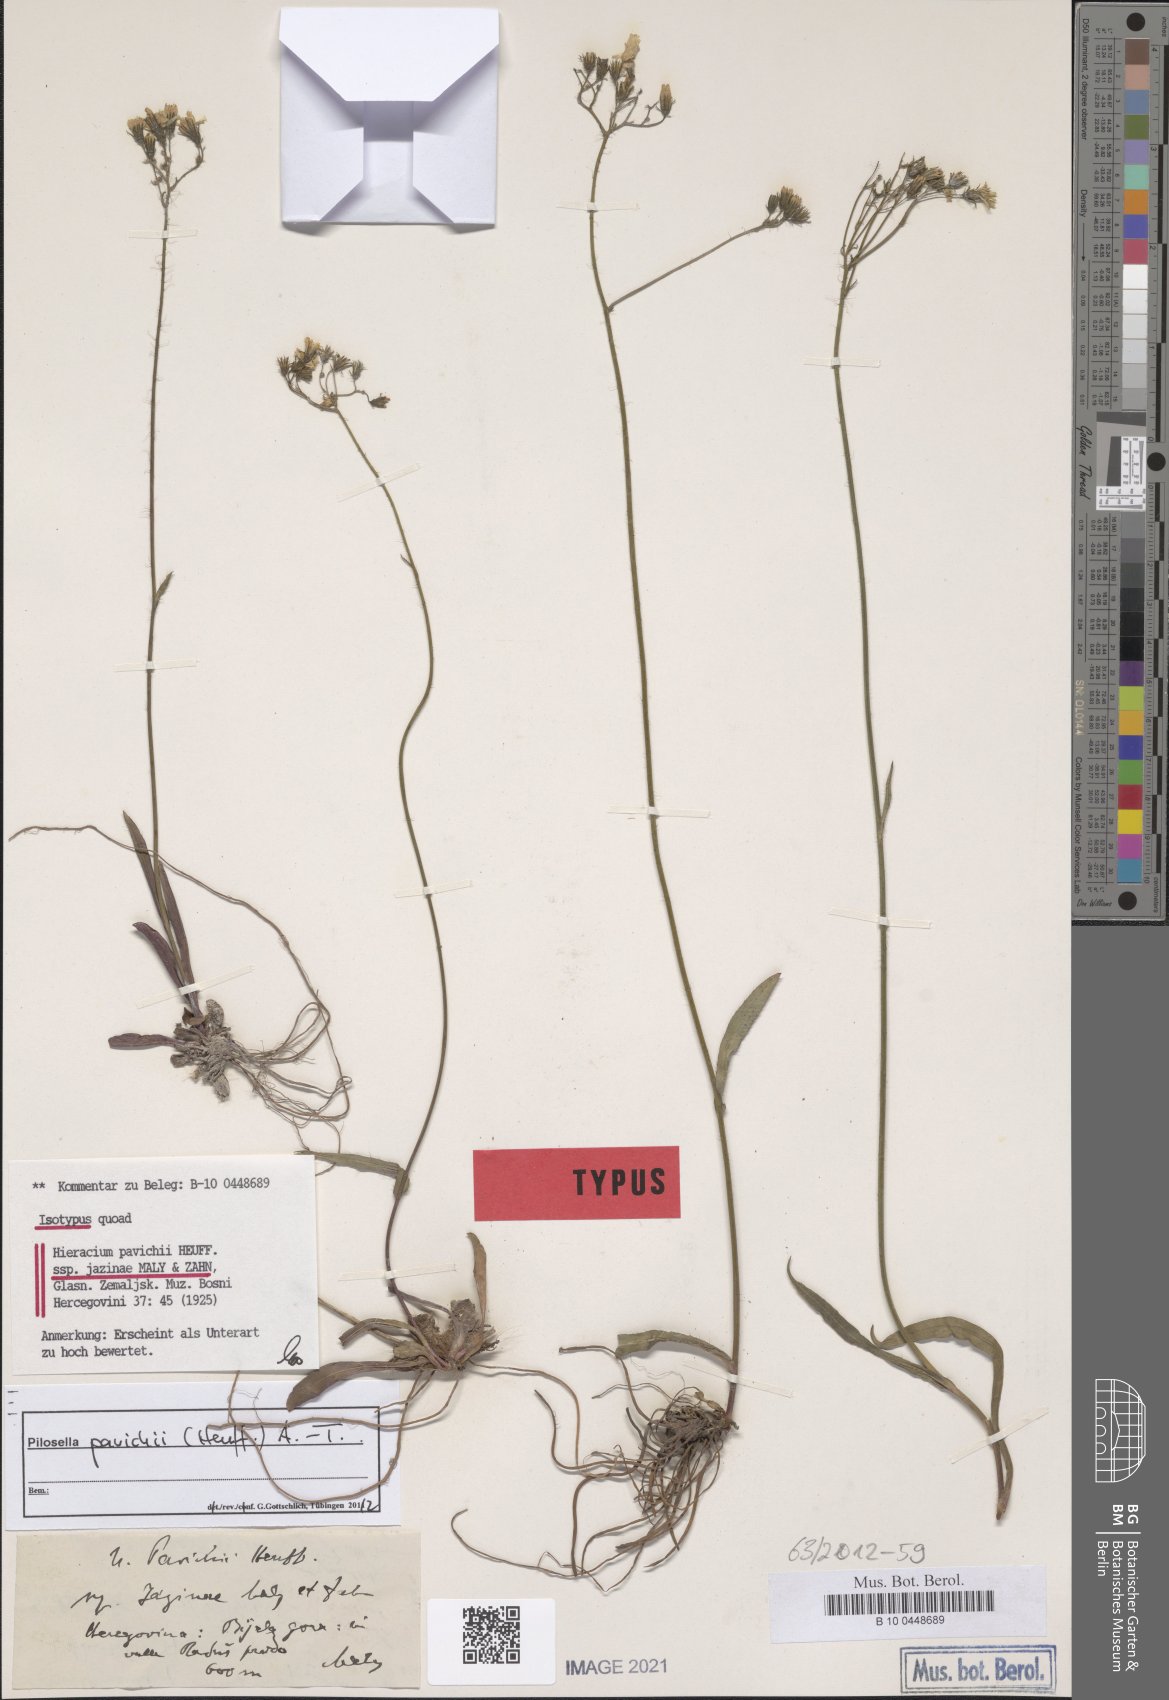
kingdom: Plantae
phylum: Tracheophyta
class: Magnoliopsida
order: Asterales
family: Asteraceae
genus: Pilosella
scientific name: Pilosella pavichii
